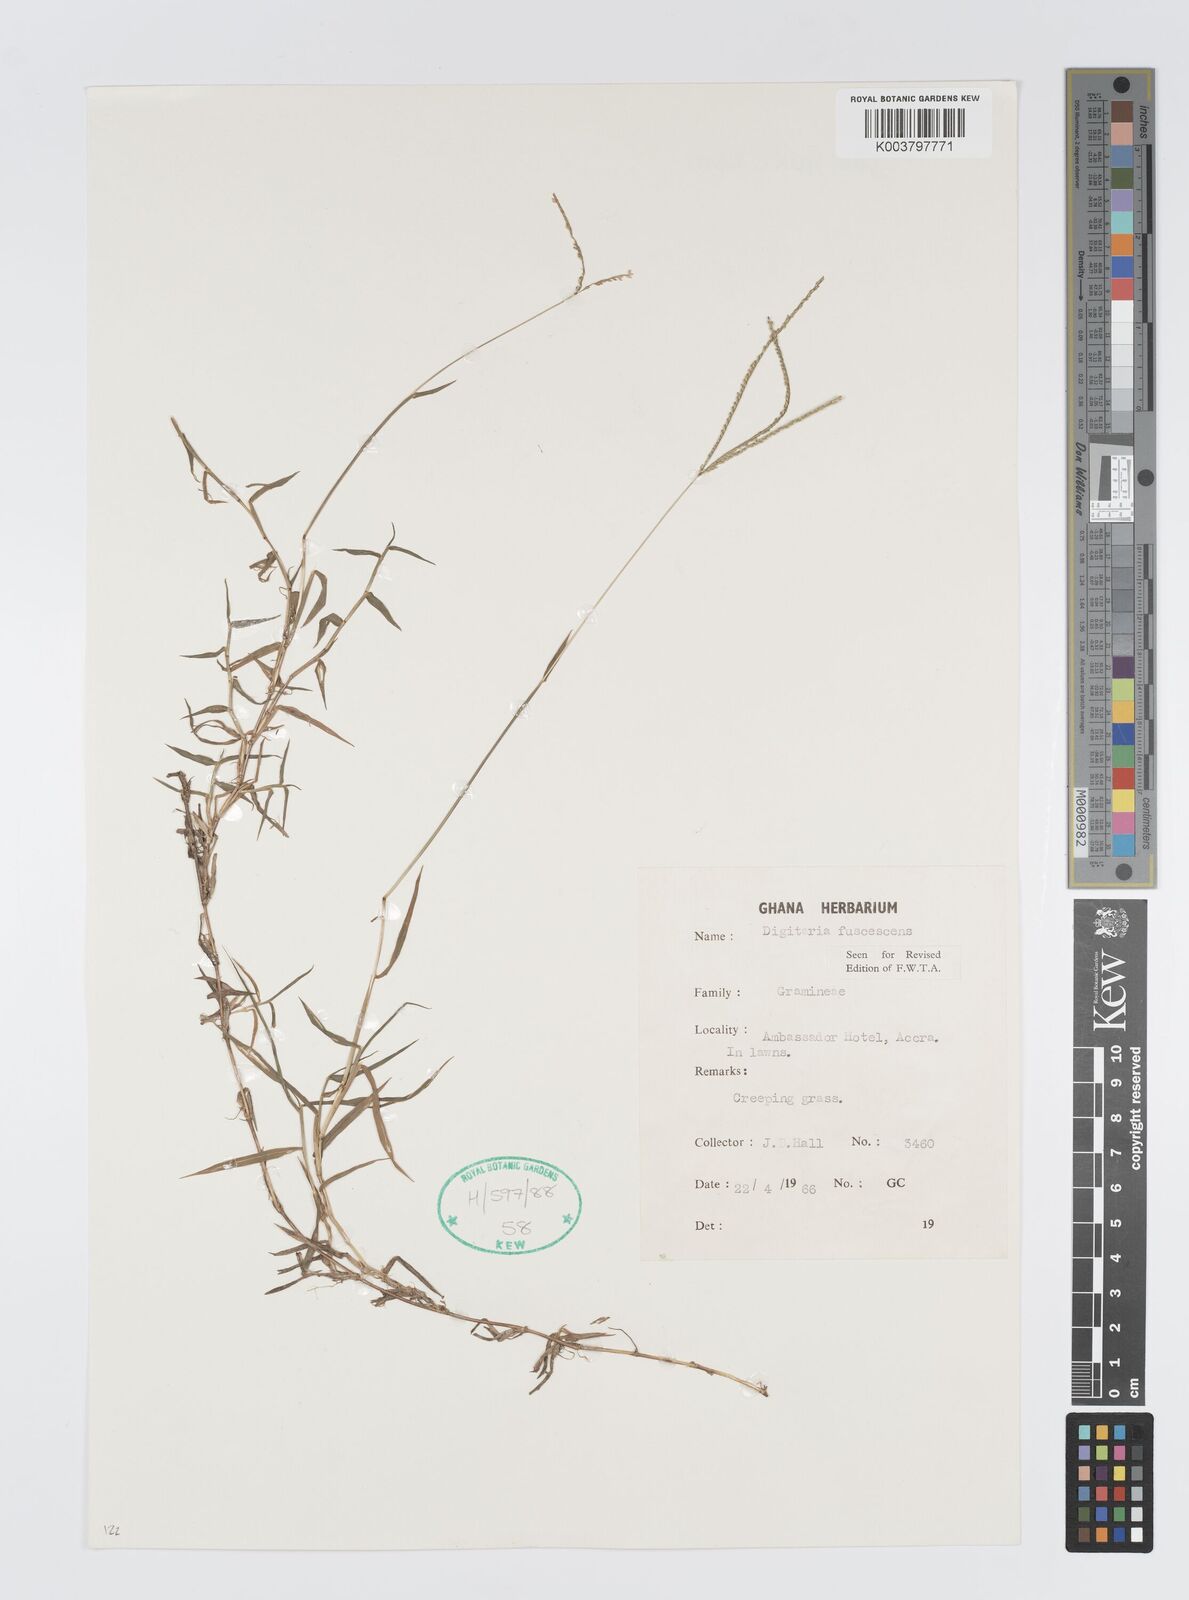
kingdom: Plantae
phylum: Tracheophyta
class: Liliopsida
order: Poales
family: Poaceae
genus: Digitaria
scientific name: Digitaria fuscescens
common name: Yellow crabgrass
